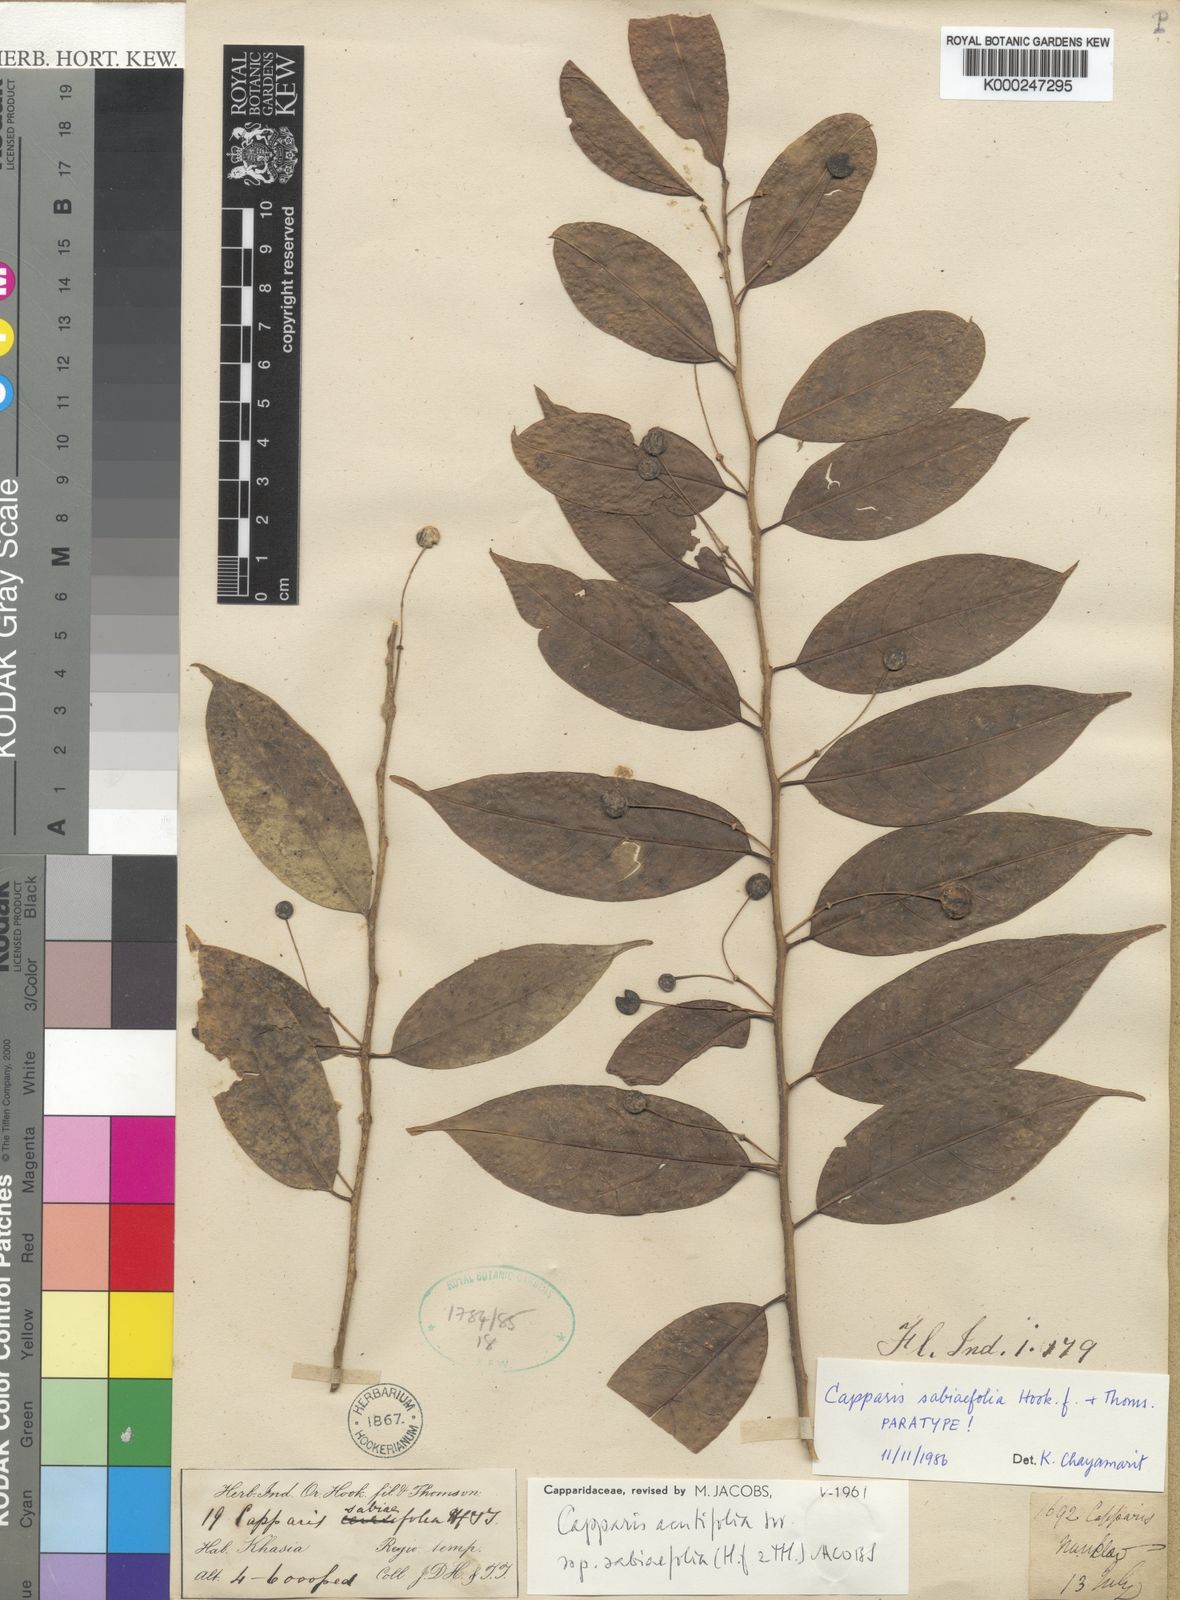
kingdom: Plantae
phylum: Tracheophyta
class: Magnoliopsida
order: Brassicales
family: Capparaceae
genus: Capparis
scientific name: Capparis acutifolia
